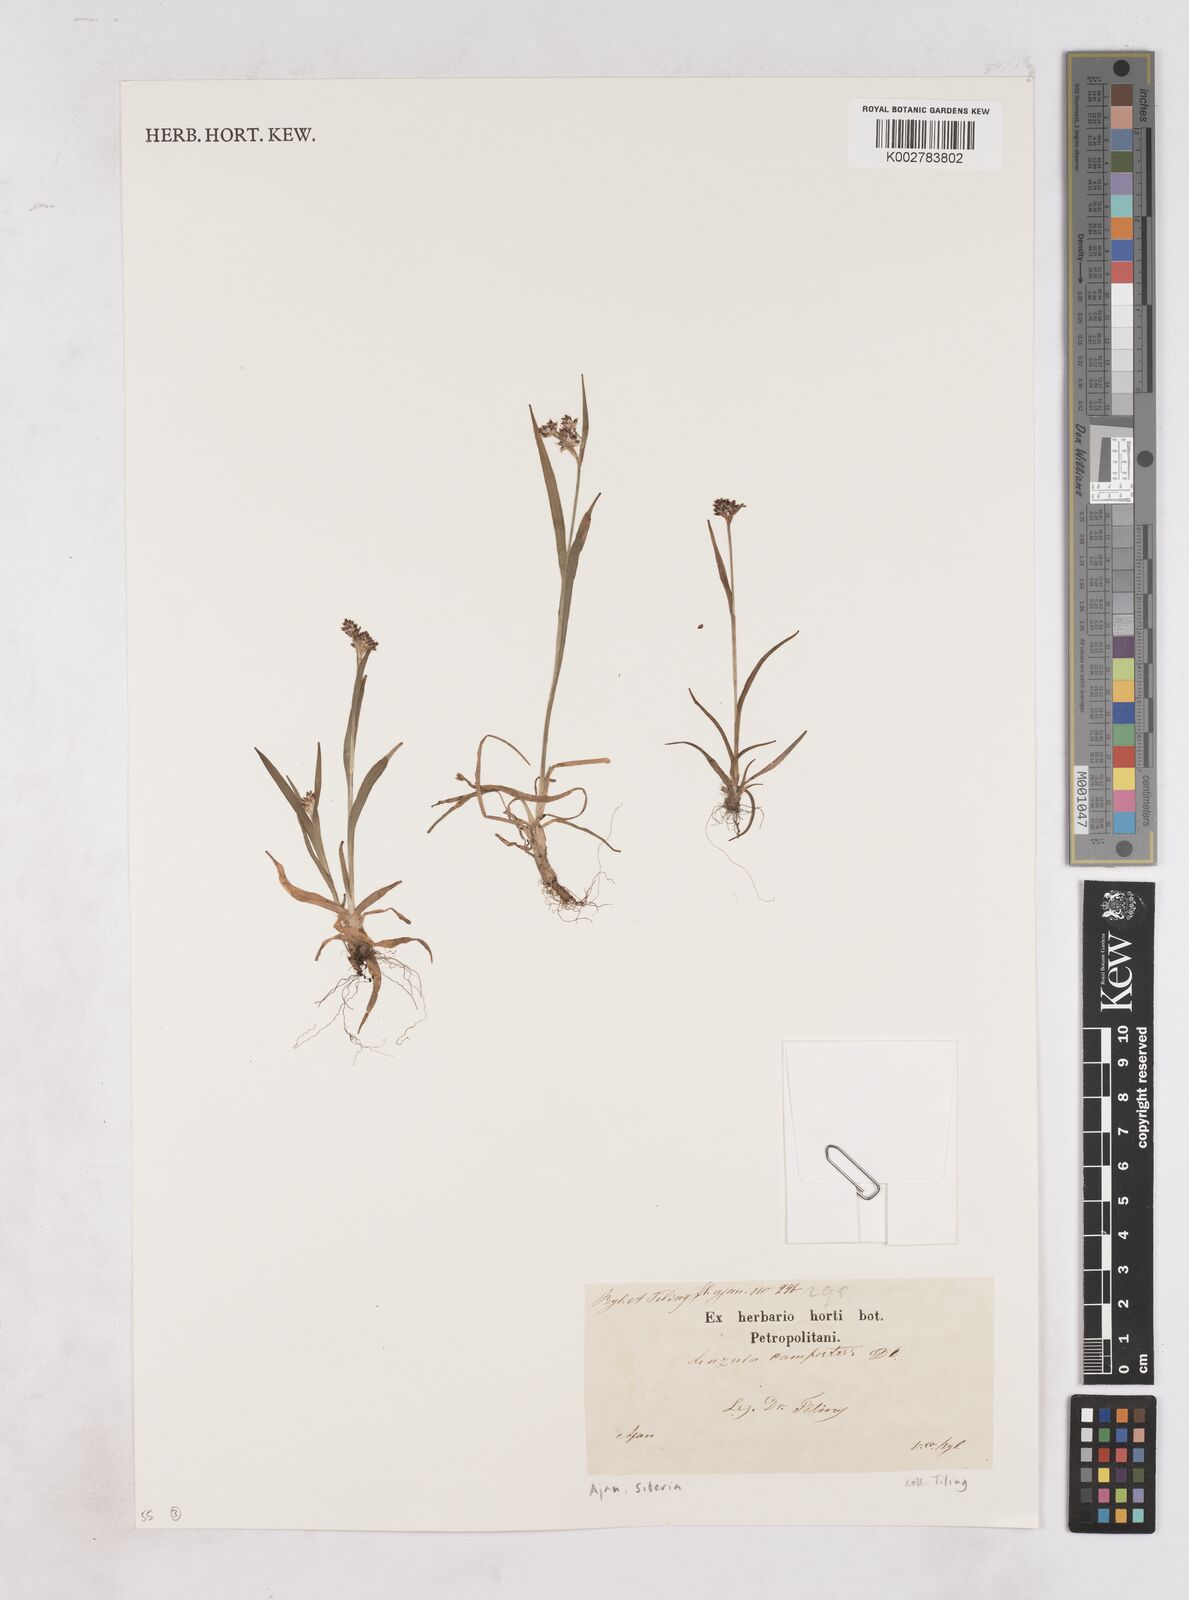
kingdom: Plantae
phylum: Tracheophyta
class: Liliopsida
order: Poales
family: Juncaceae
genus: Luzula
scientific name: Luzula campestris
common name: Field wood-rush
